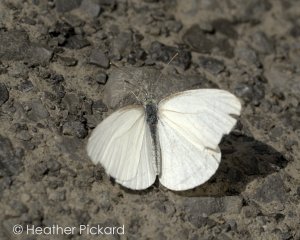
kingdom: Animalia
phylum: Arthropoda
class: Insecta
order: Lepidoptera
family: Pieridae
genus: Pieris
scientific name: Pieris oleracea
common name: Mustard White
